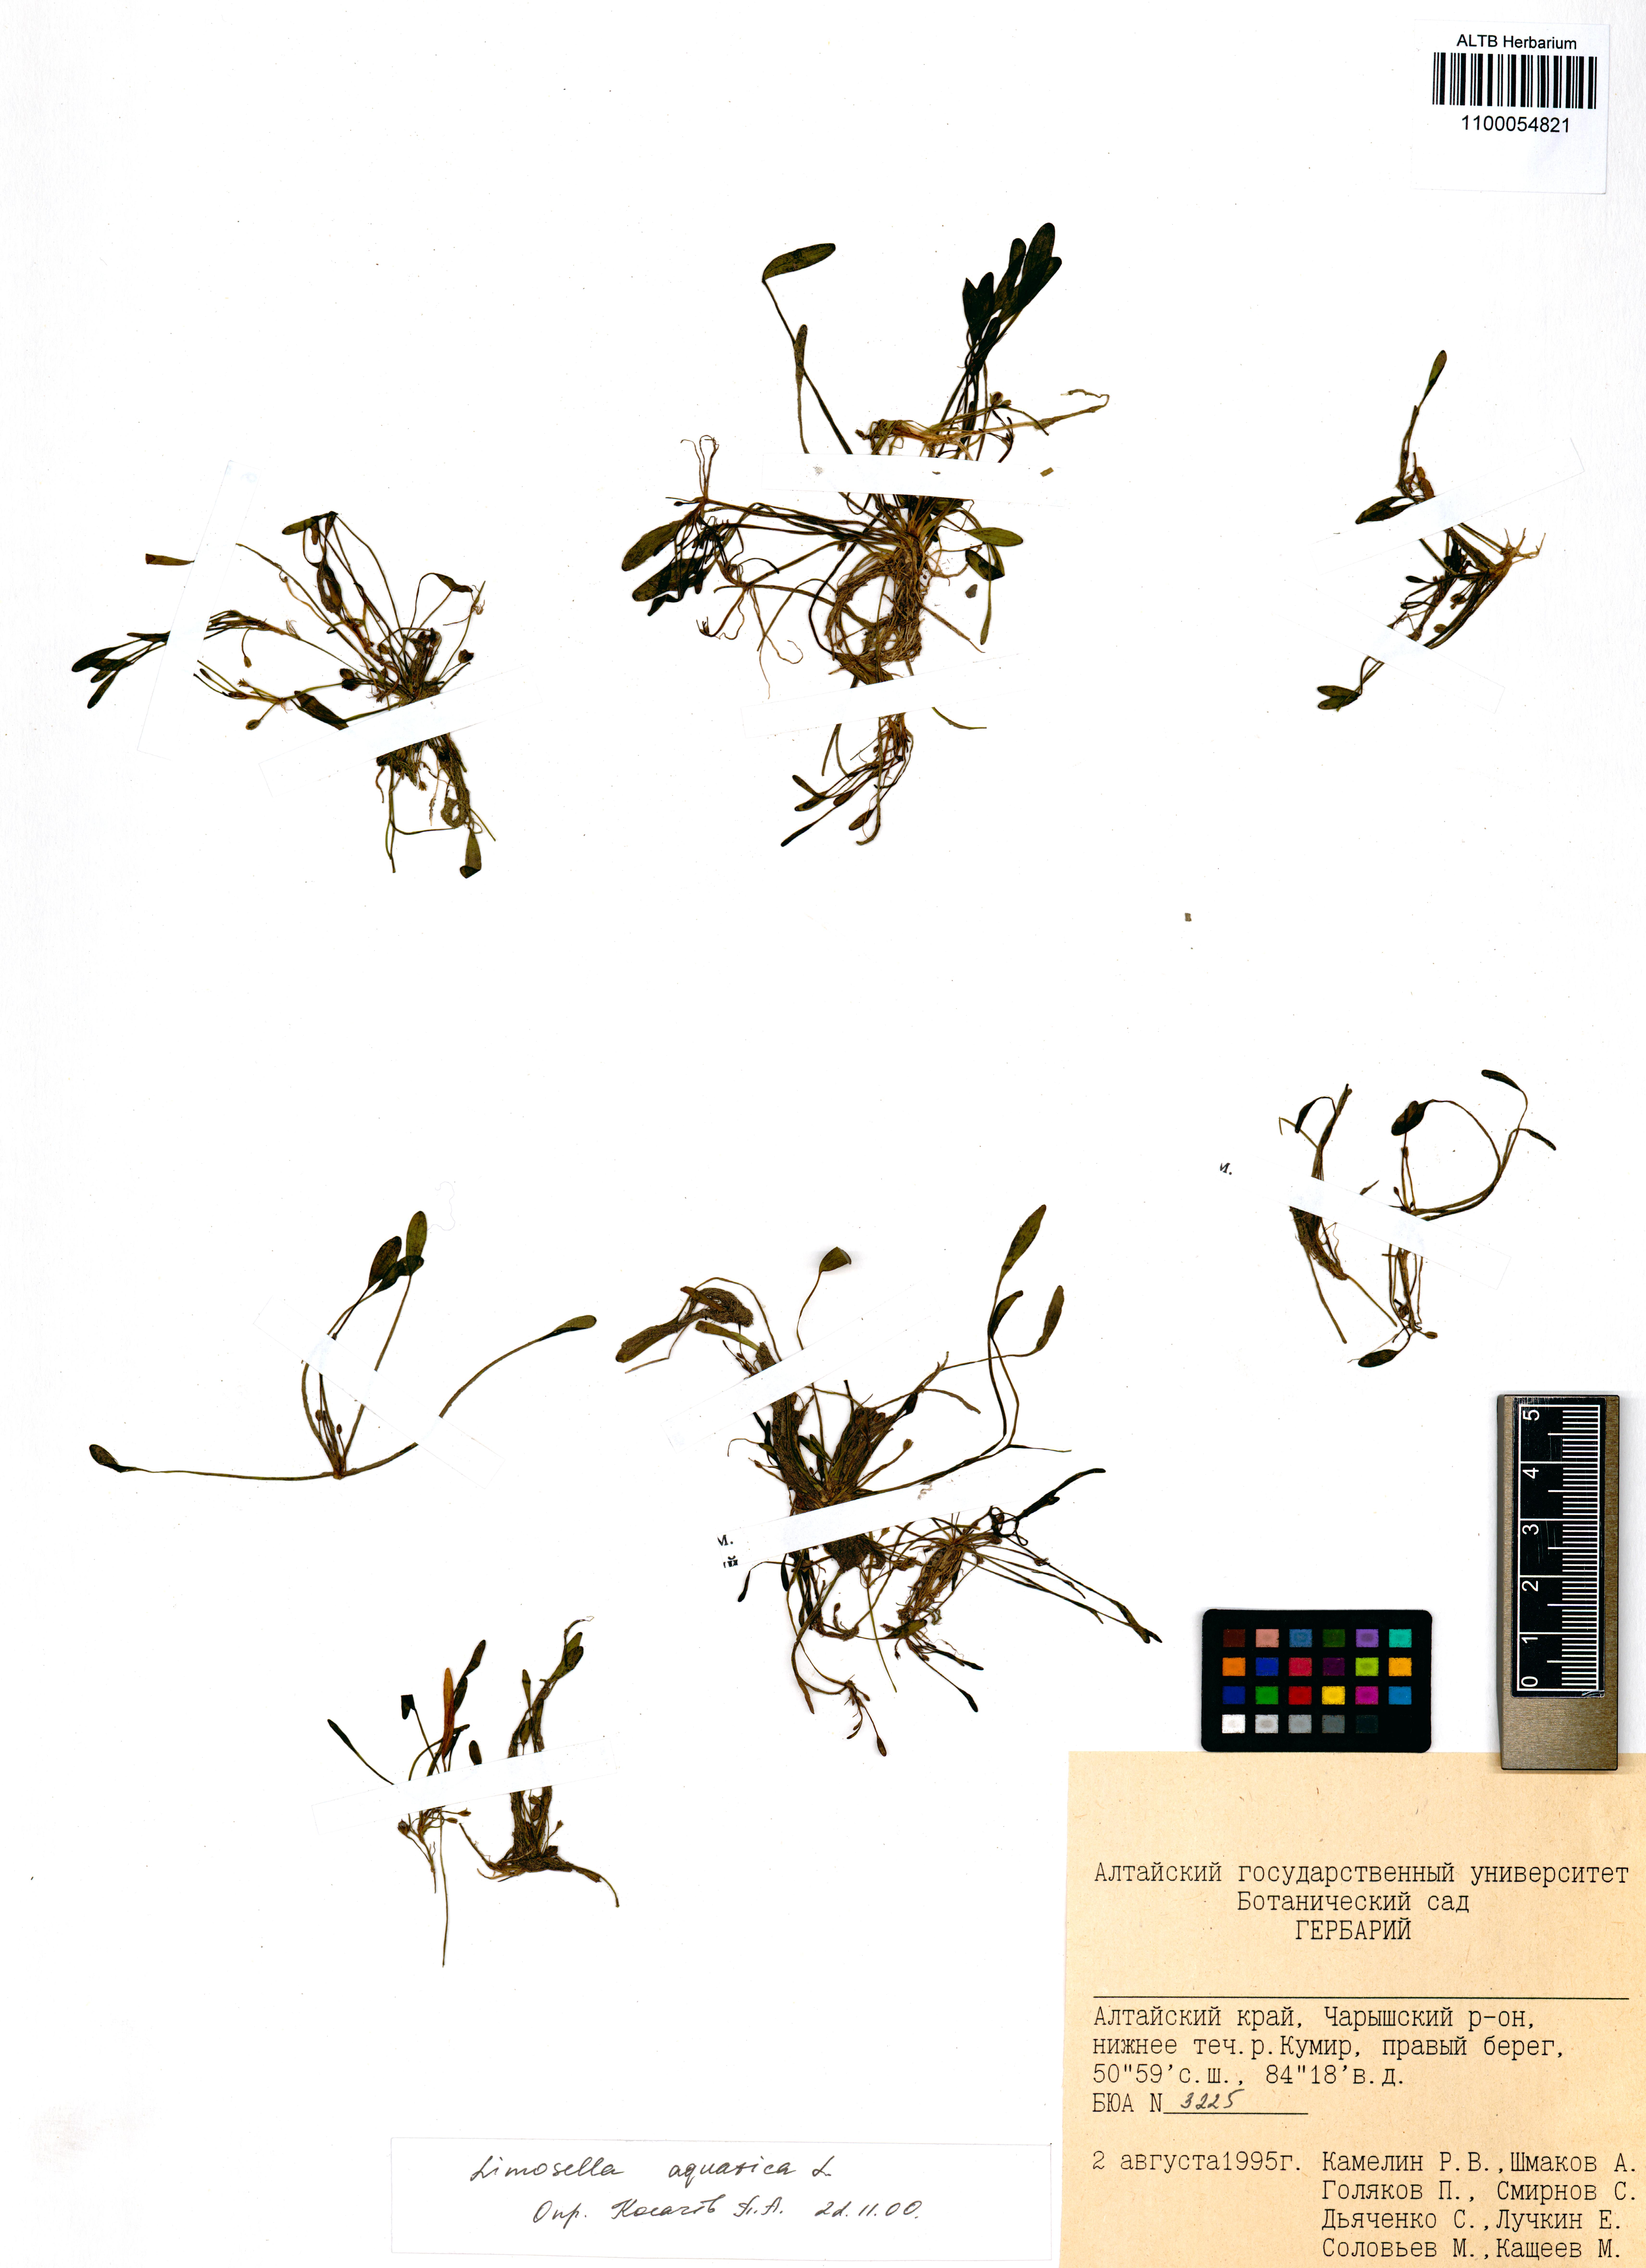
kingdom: Plantae
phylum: Tracheophyta
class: Magnoliopsida
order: Lamiales
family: Scrophulariaceae
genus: Limosella
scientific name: Limosella aquatica
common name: Mudwort
